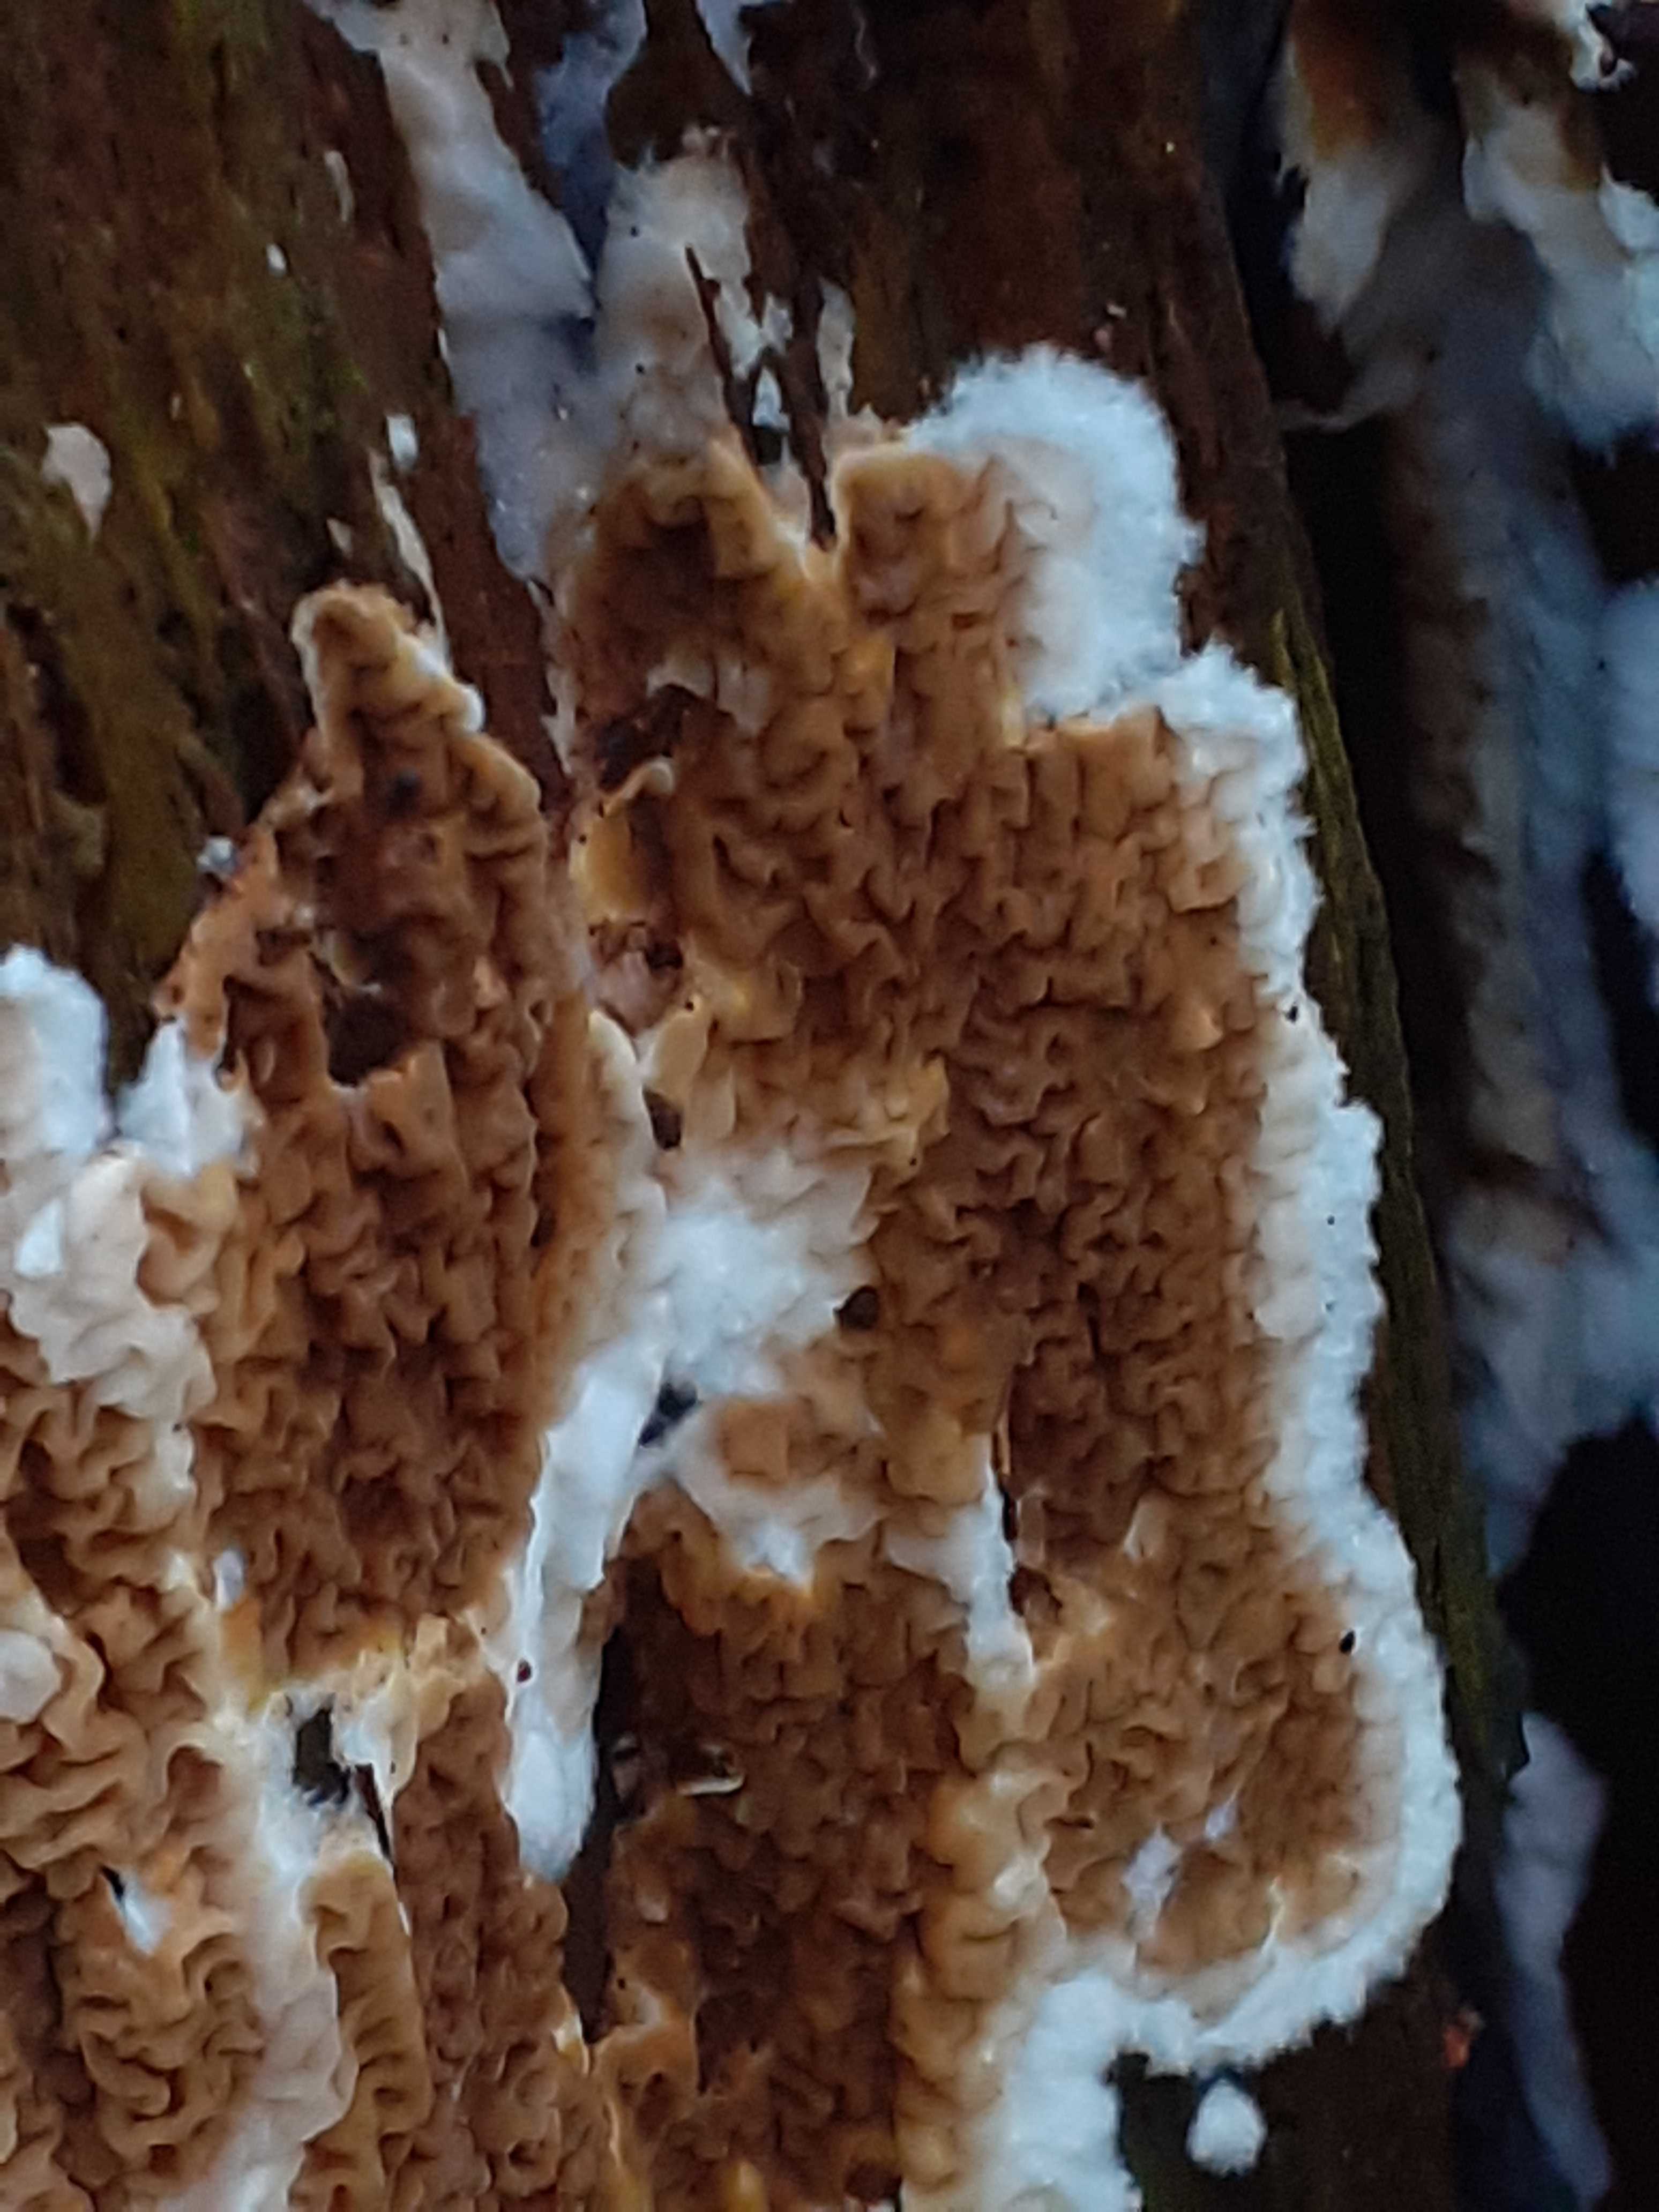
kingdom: Fungi
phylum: Basidiomycota
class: Agaricomycetes
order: Boletales
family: Serpulaceae
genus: Serpula
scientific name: Serpula himantioides
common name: tyndkødet hussvamp
